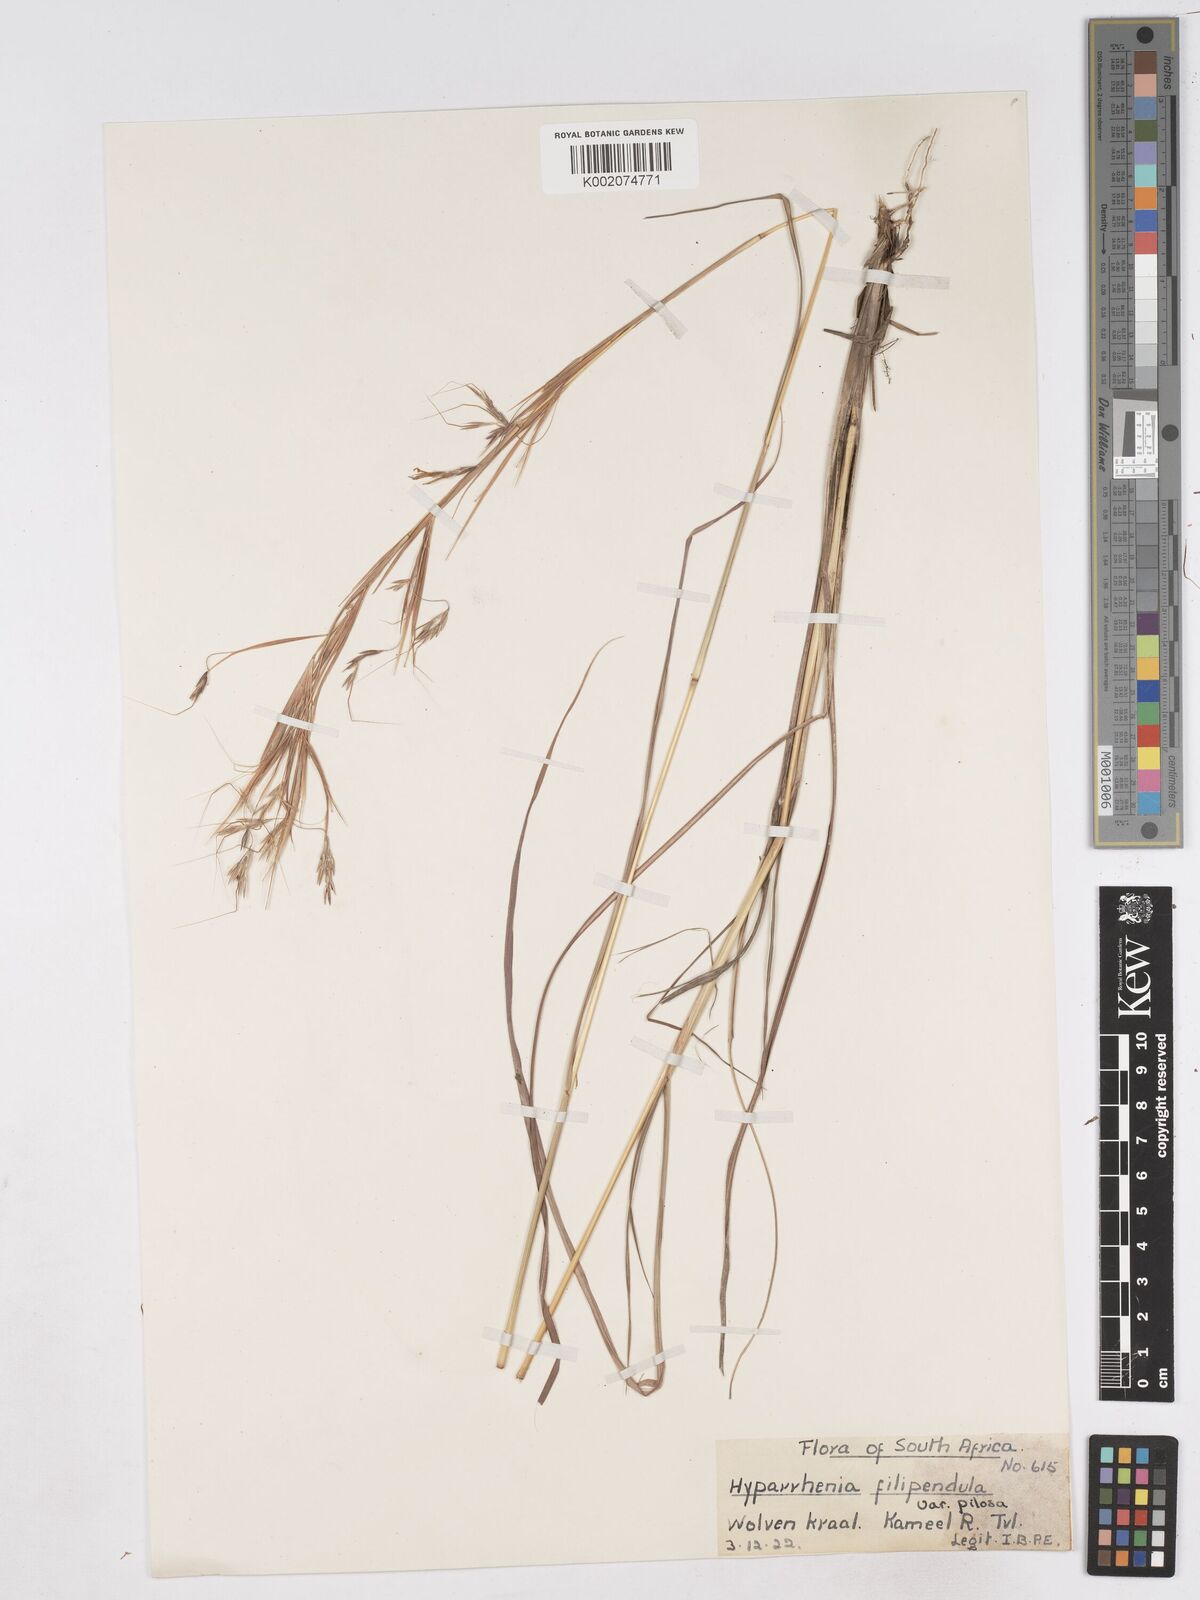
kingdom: Plantae
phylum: Tracheophyta
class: Liliopsida
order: Poales
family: Poaceae
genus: Hyparrhenia
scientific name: Hyparrhenia filipendula
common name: Tambookie grass
